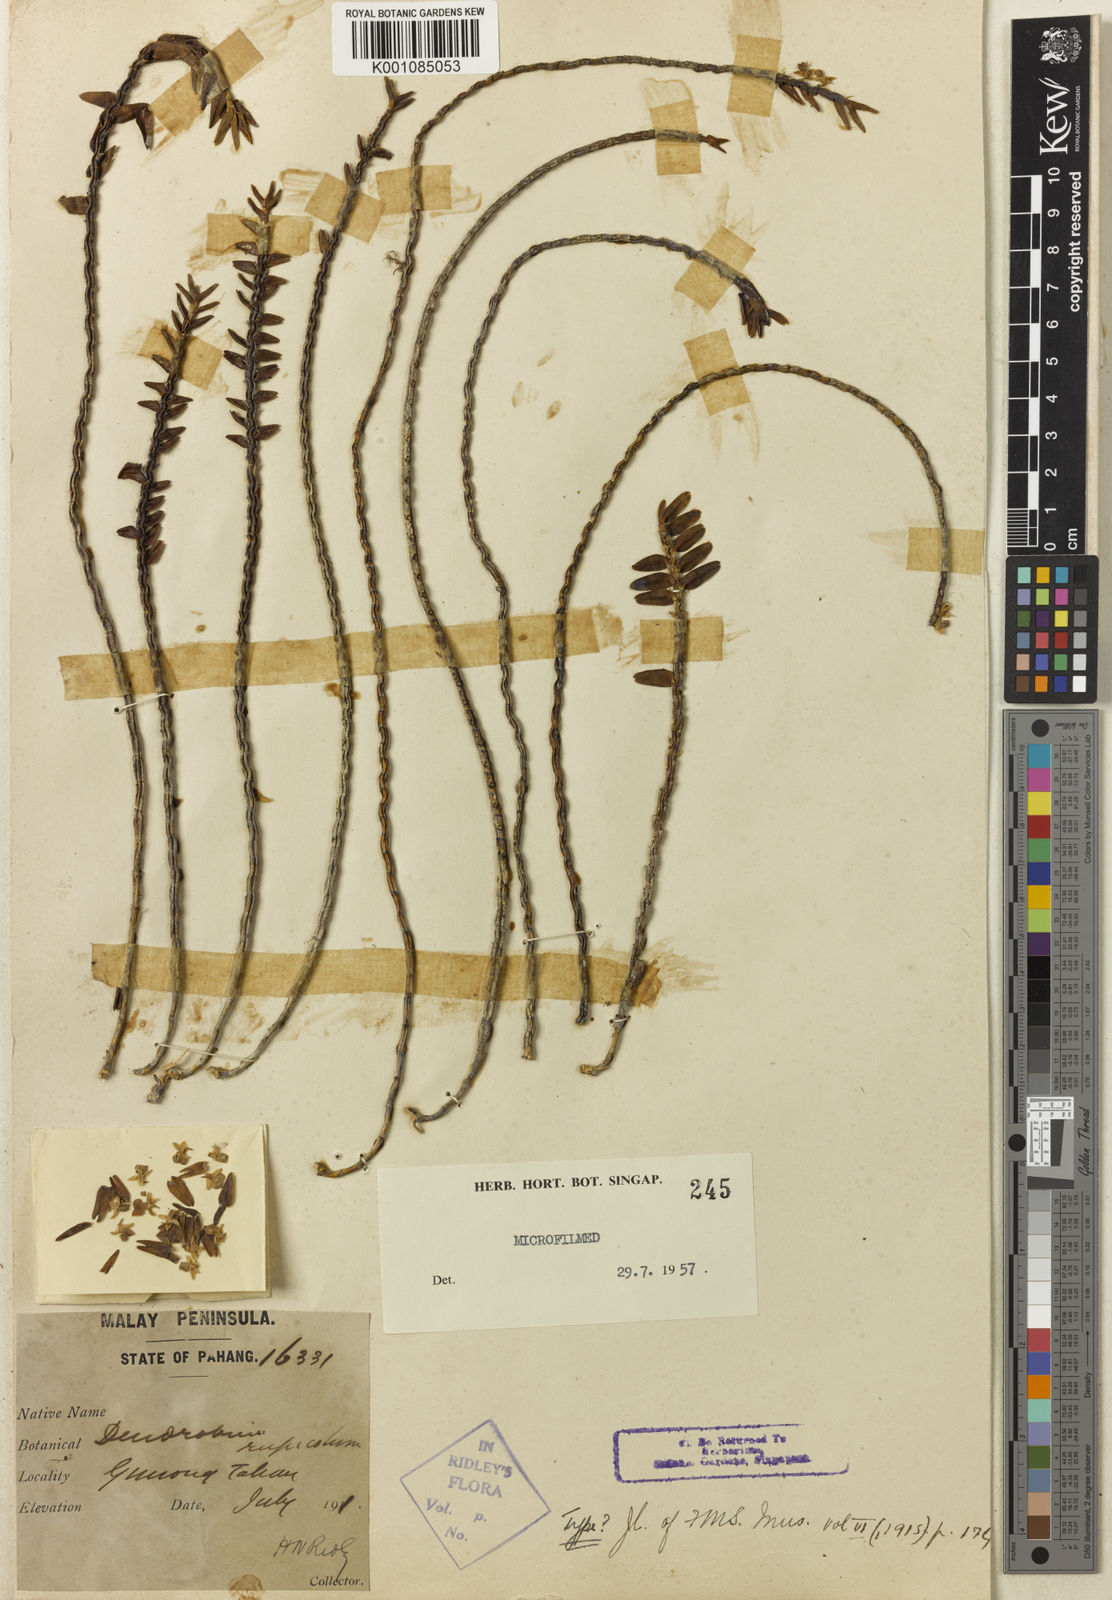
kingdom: Plantae
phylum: Tracheophyta
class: Liliopsida
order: Asparagales
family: Orchidaceae
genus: Dendrobium
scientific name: Dendrobium rupicola
